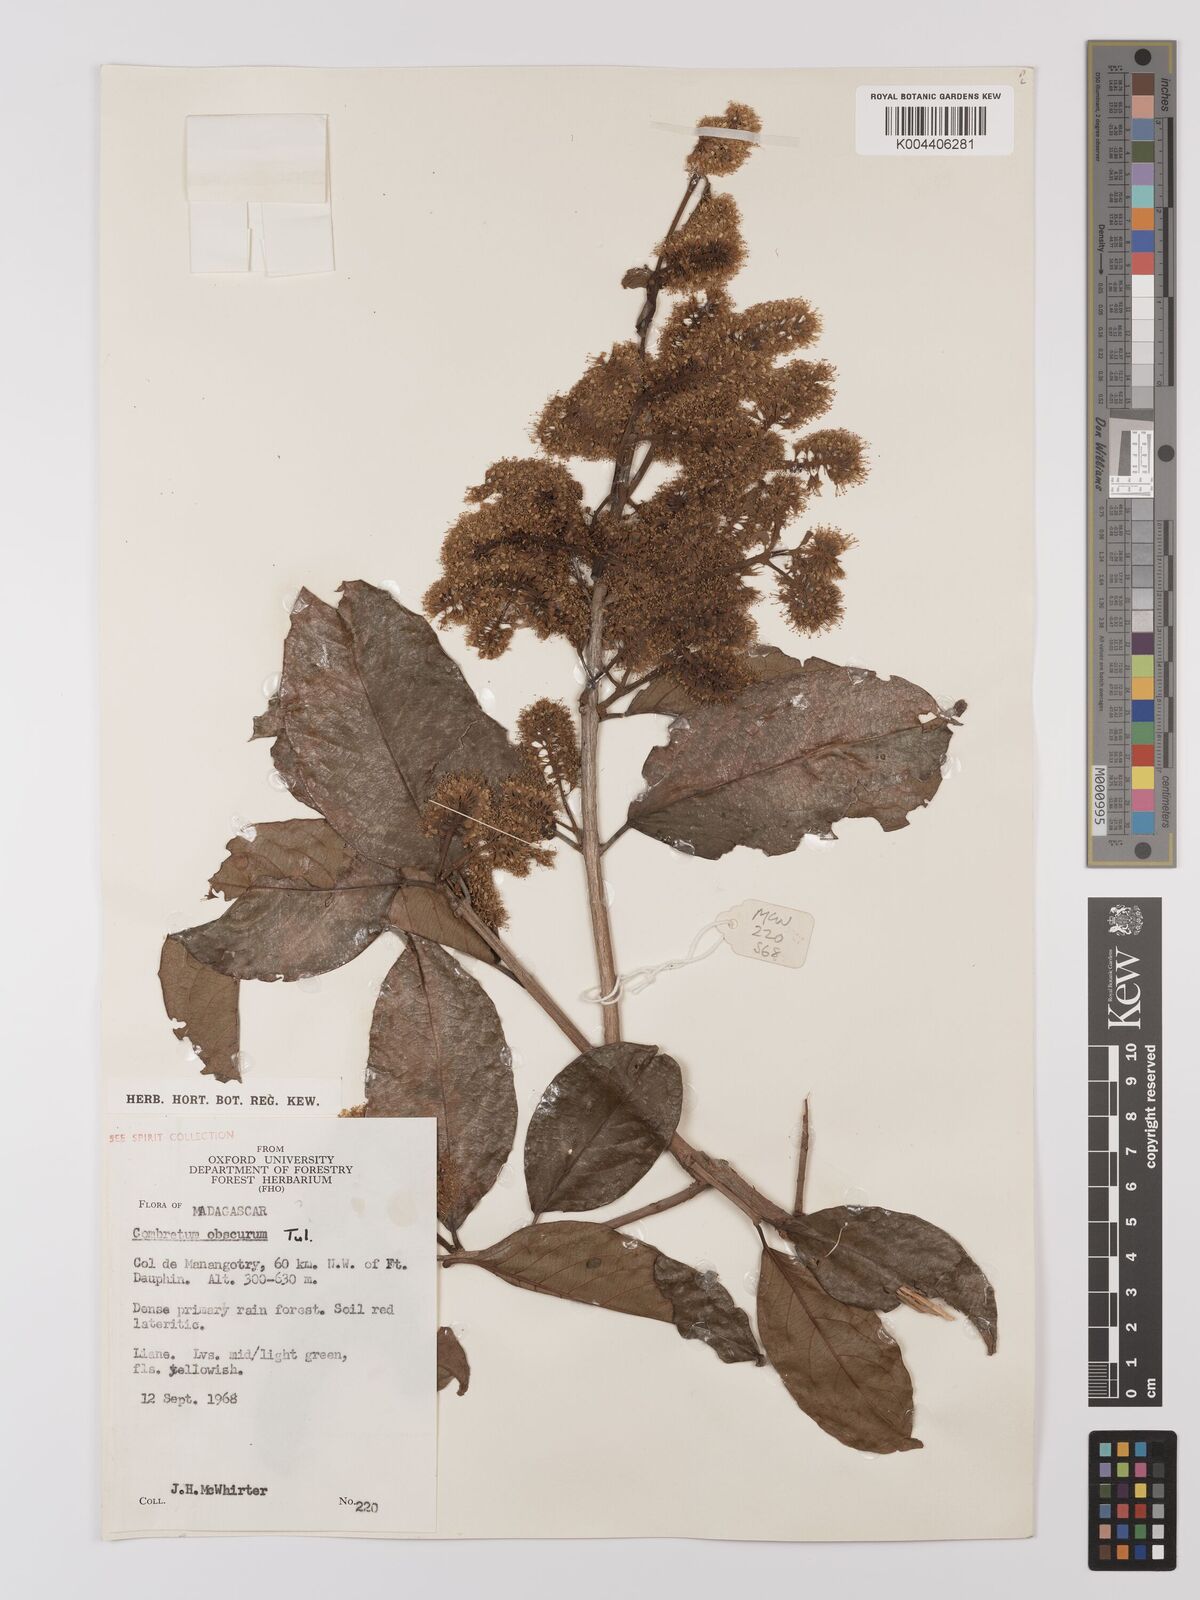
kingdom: Plantae
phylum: Tracheophyta
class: Magnoliopsida
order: Myrtales
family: Combretaceae
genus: Combretum
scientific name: Combretum obscurum
